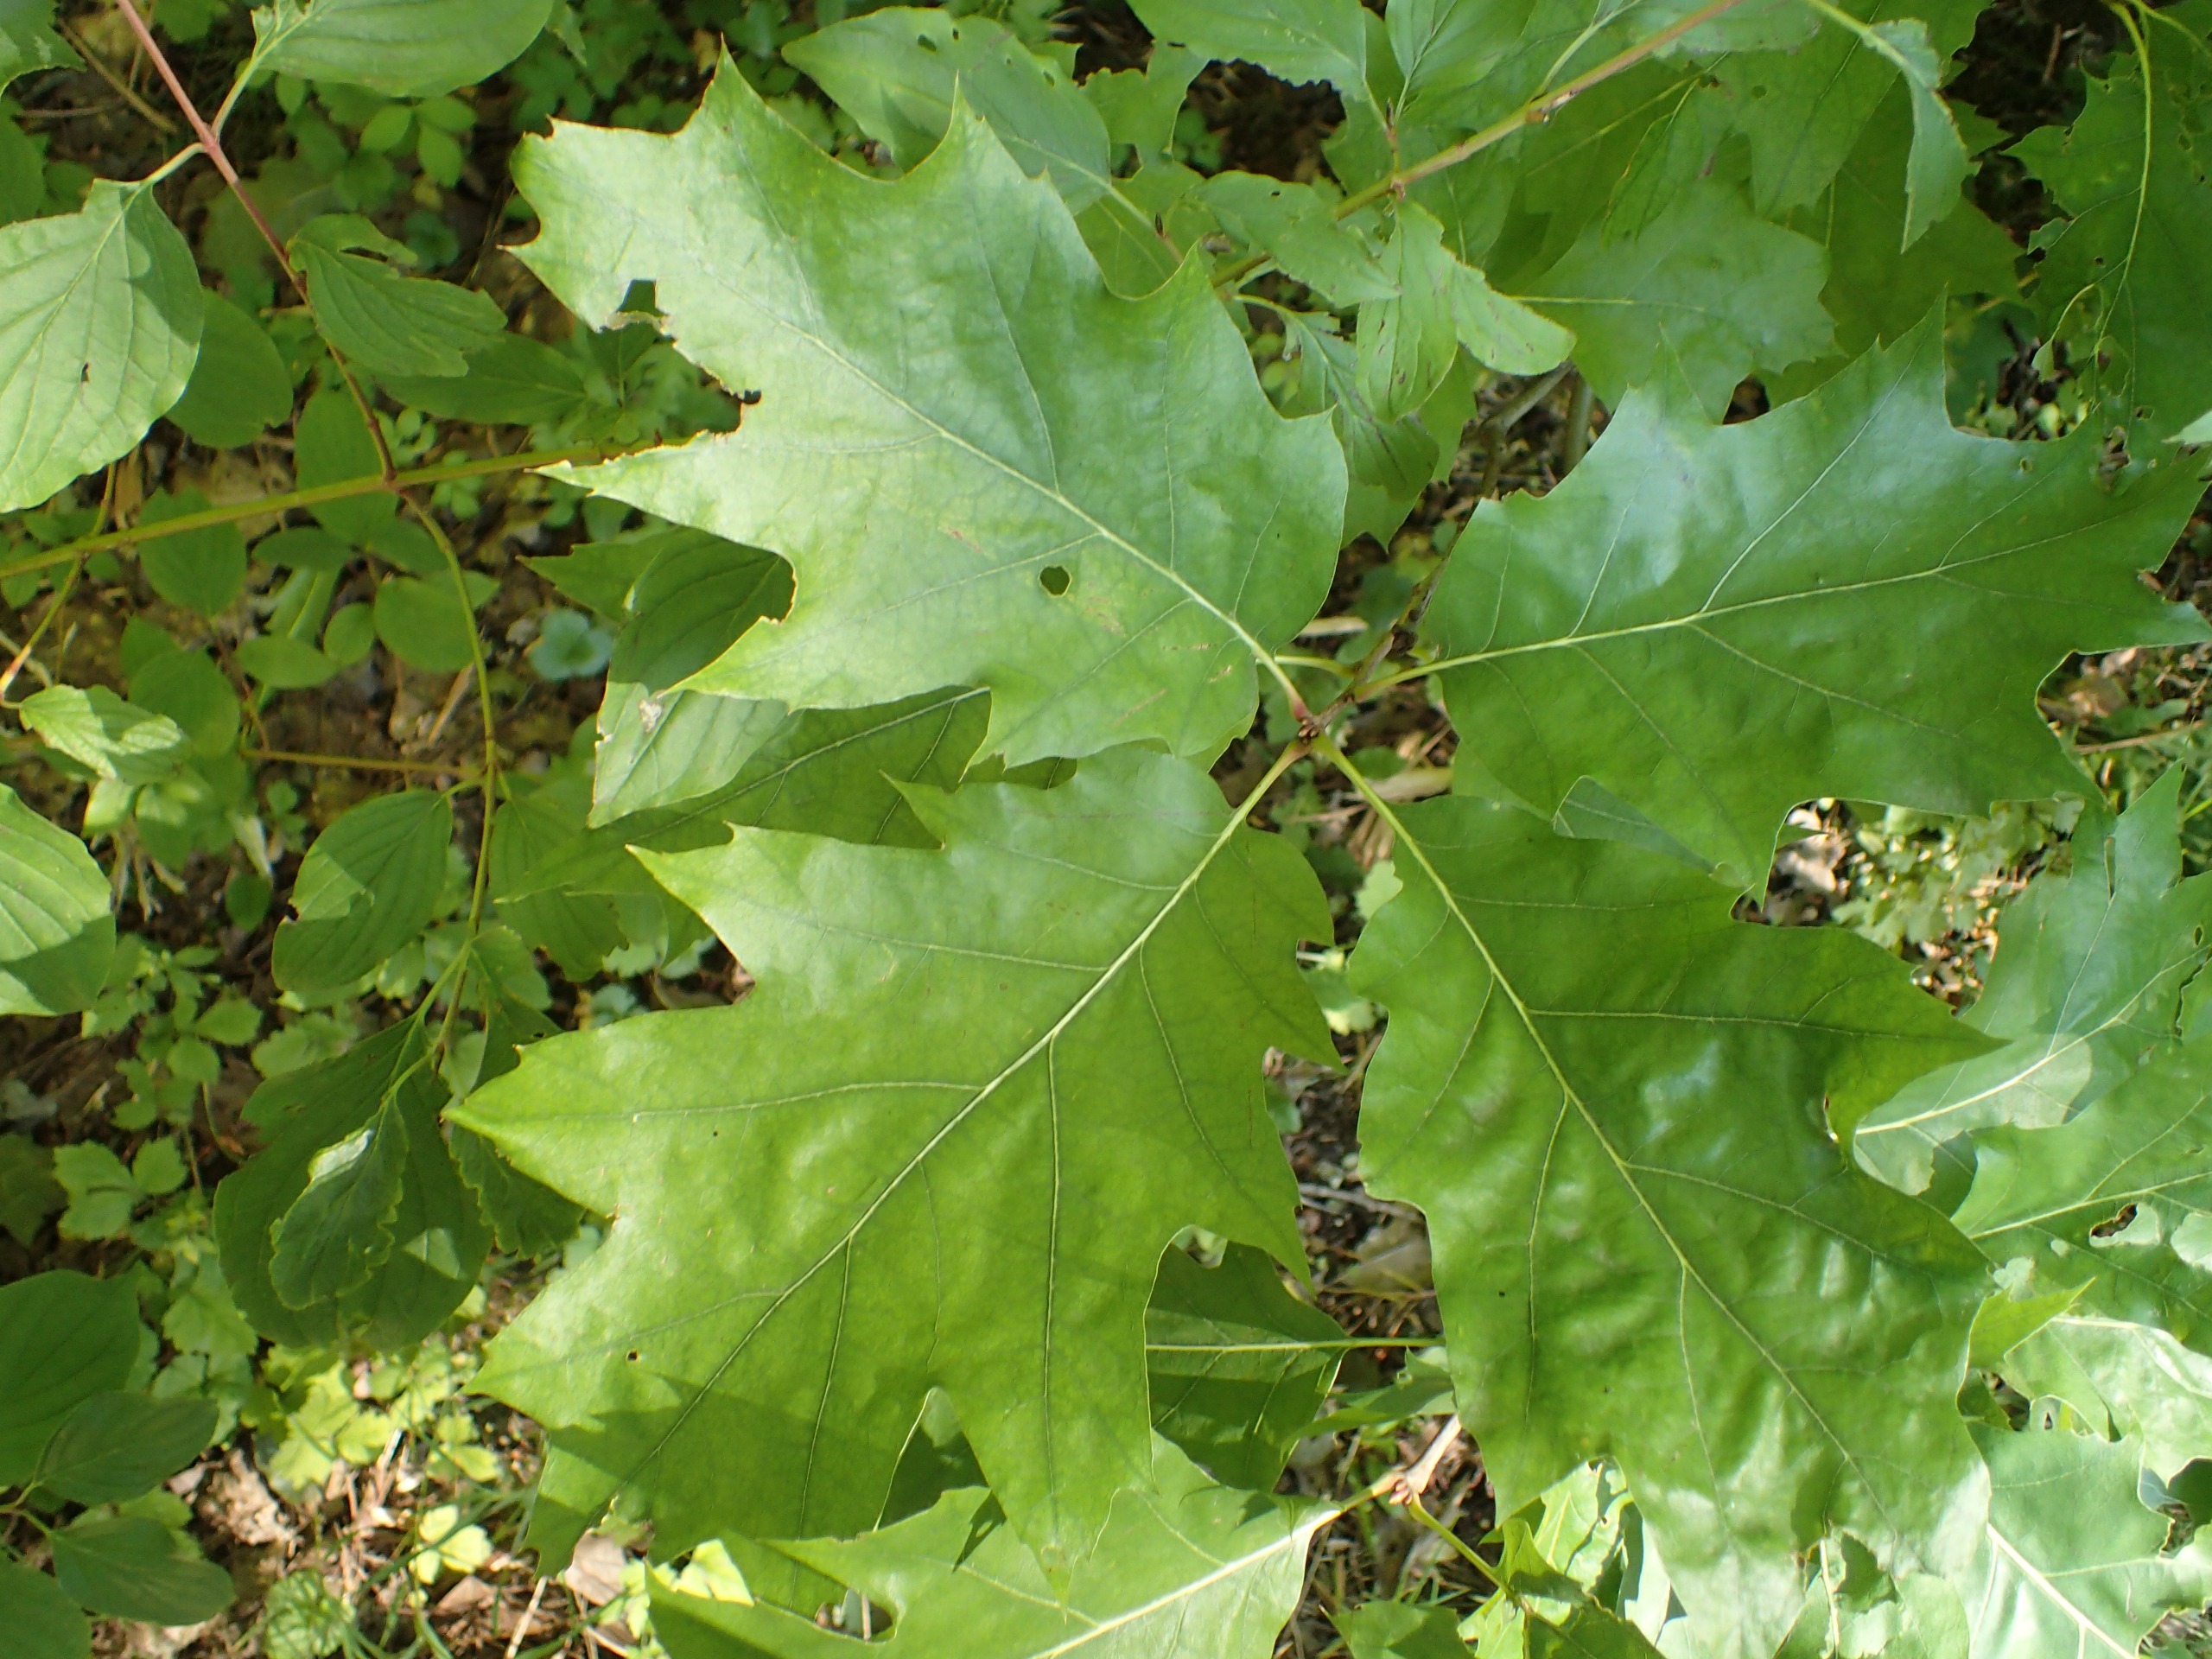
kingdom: Plantae
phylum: Tracheophyta
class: Magnoliopsida
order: Fagales
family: Fagaceae
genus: Quercus
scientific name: Quercus rubra
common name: Rød-eg
